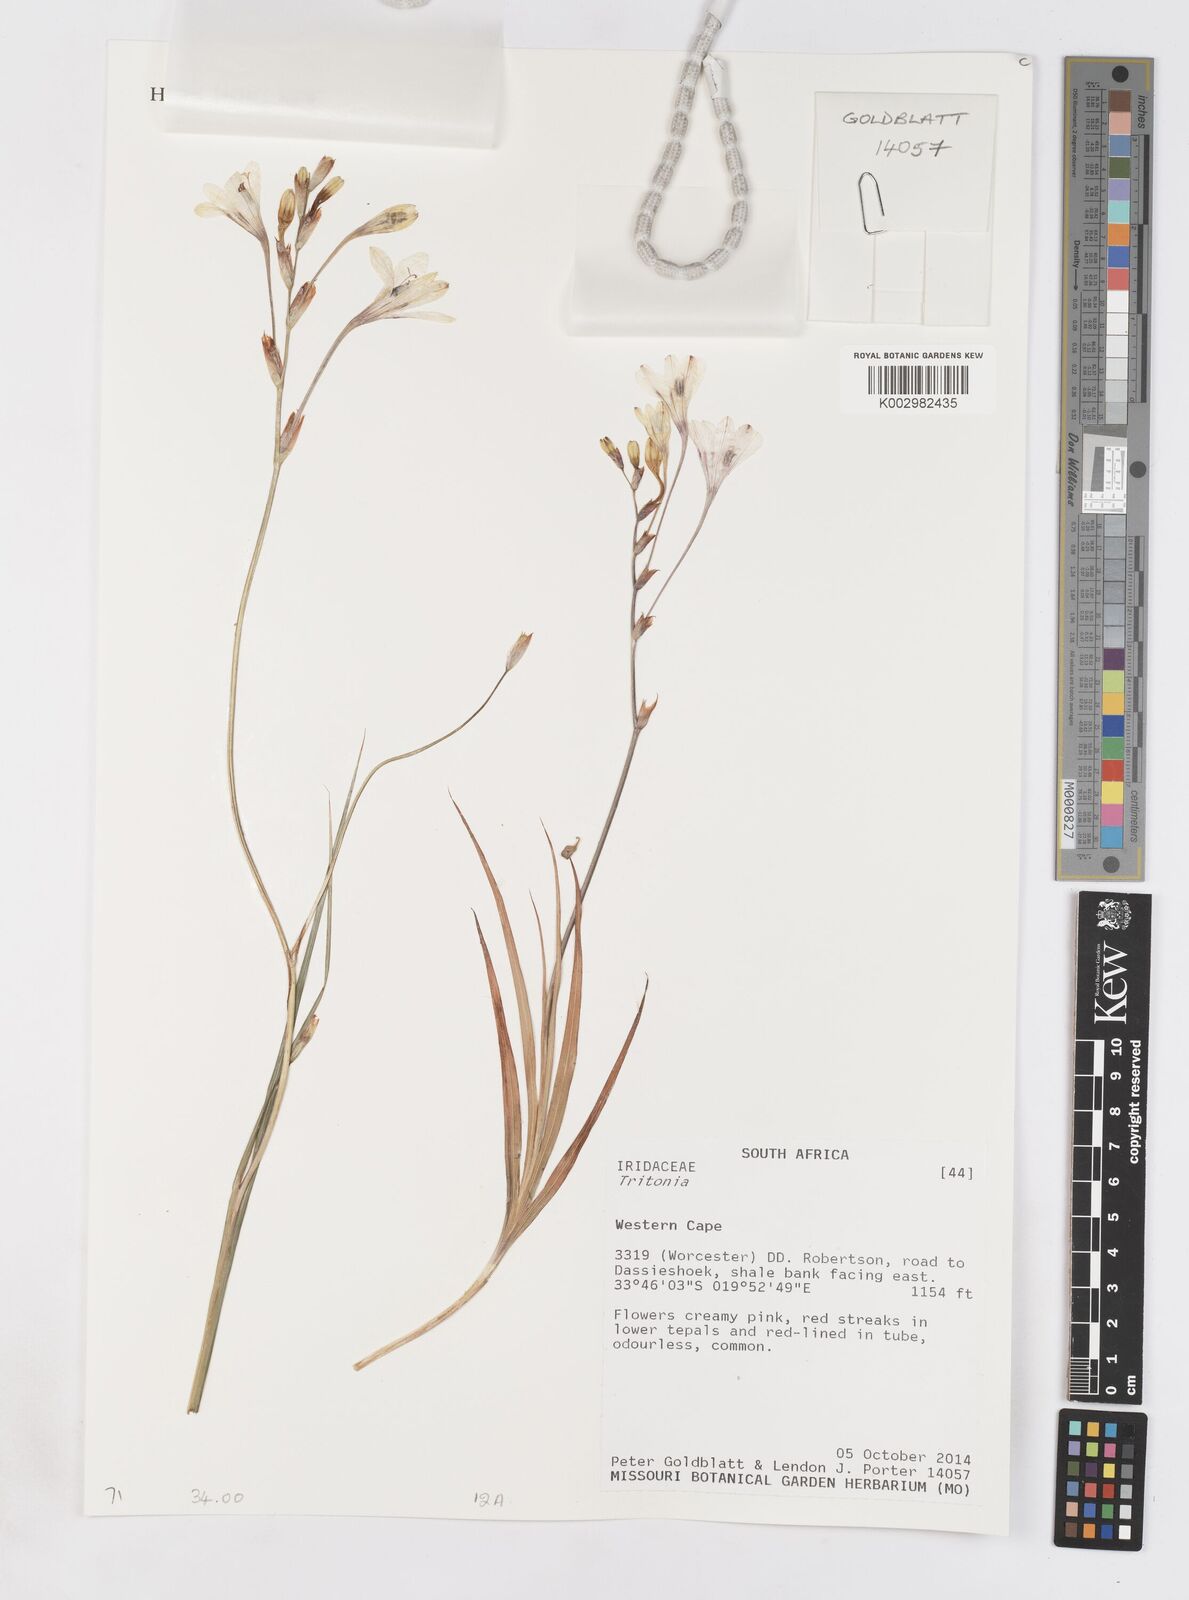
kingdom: Plantae
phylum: Tracheophyta
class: Liliopsida
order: Asparagales
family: Iridaceae
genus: Tritonia
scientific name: Tritonia
